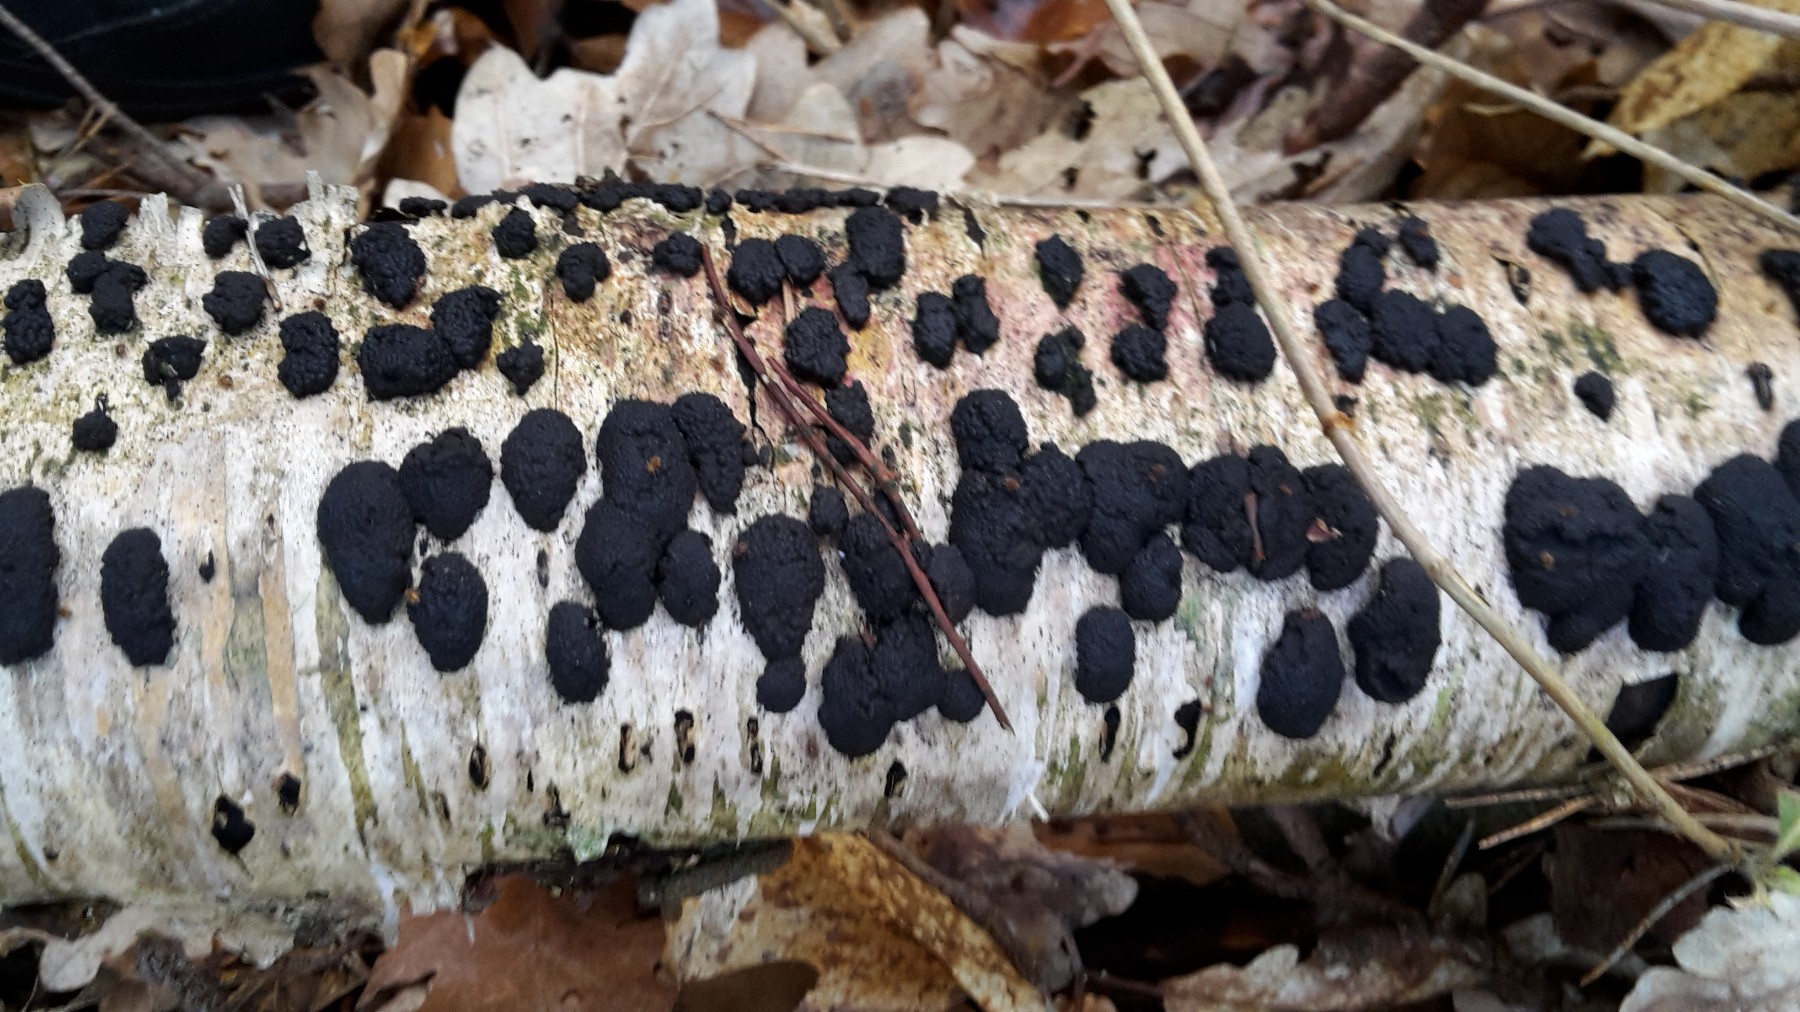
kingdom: Fungi
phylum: Ascomycota
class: Sordariomycetes
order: Xylariales
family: Hypoxylaceae
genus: Jackrogersella
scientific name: Jackrogersella multiformis
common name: foranderlig kulbær
